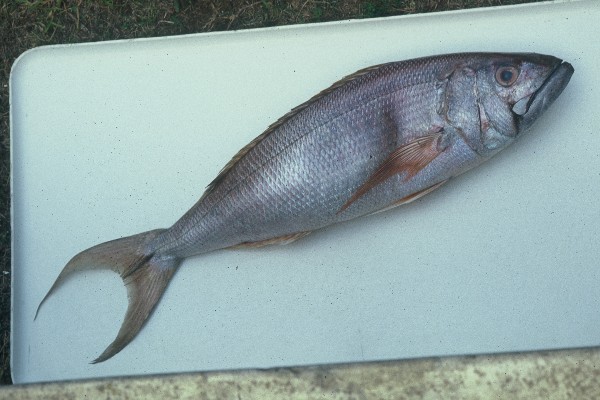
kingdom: Animalia
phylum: Chordata
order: Perciformes
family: Lutjanidae
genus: Aphareus
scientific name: Aphareus rutilans
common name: Rusty jobfish
